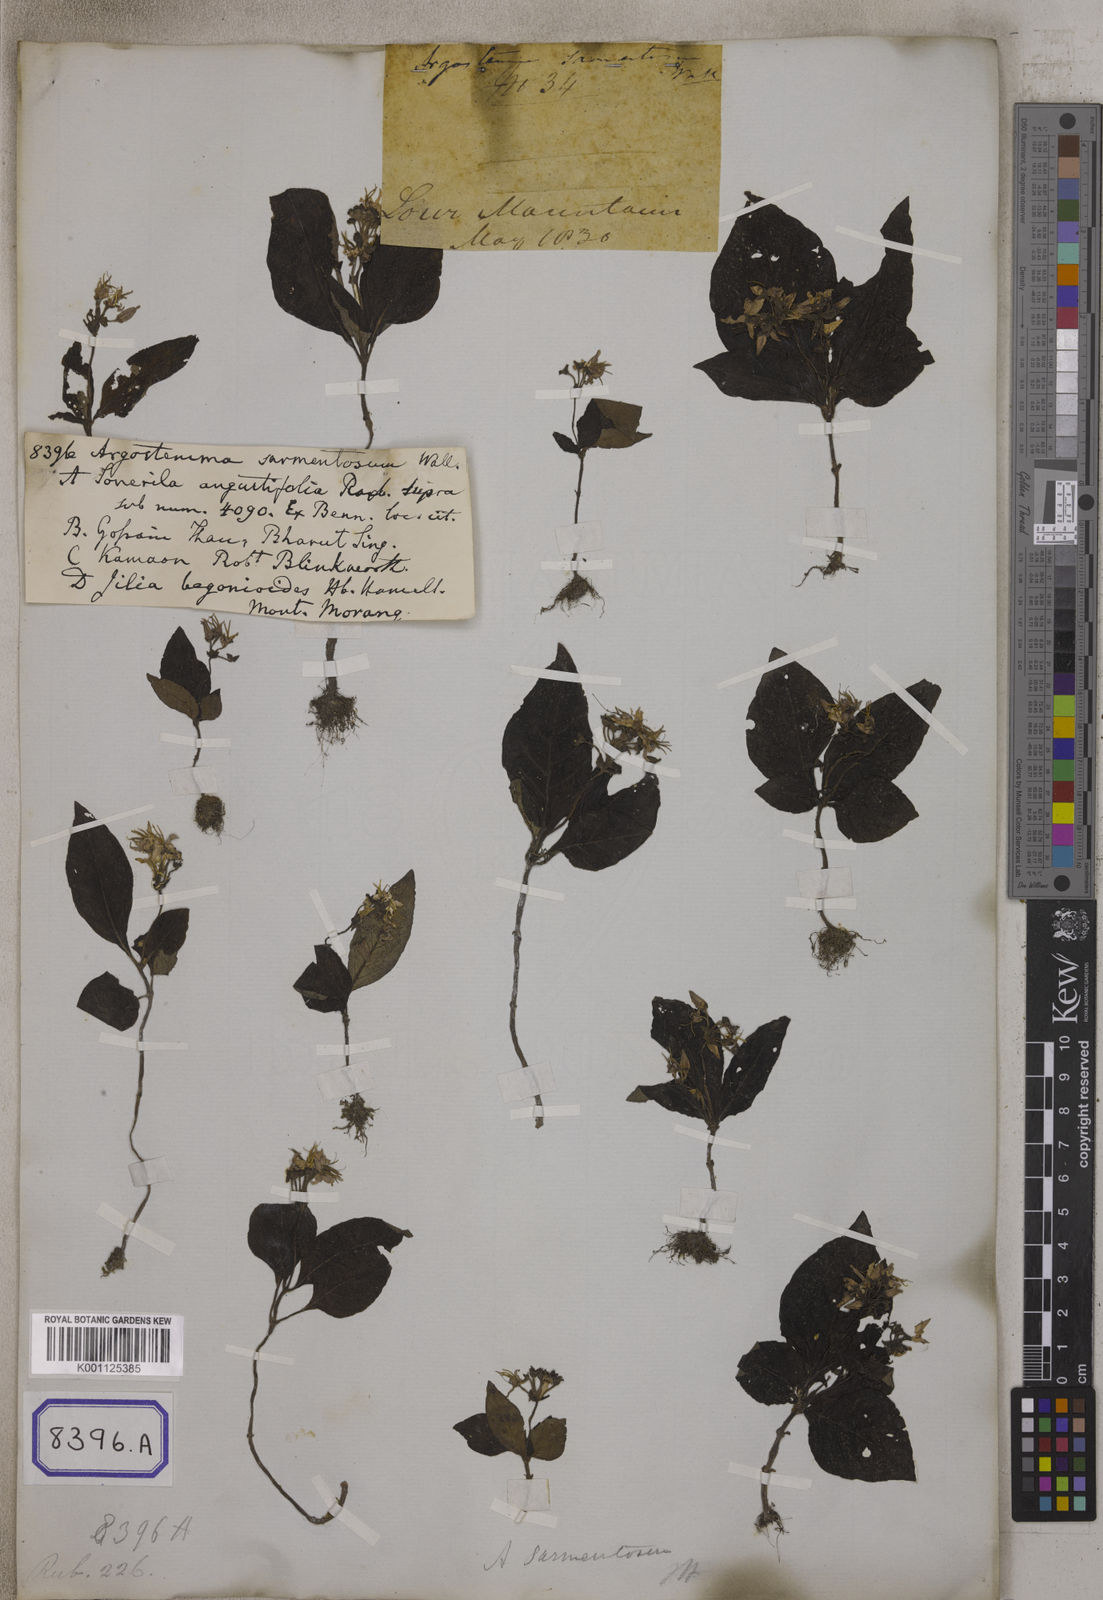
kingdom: Plantae
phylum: Tracheophyta
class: Magnoliopsida
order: Gentianales
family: Rubiaceae
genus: Argostemma
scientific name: Argostemma sarmentosum
